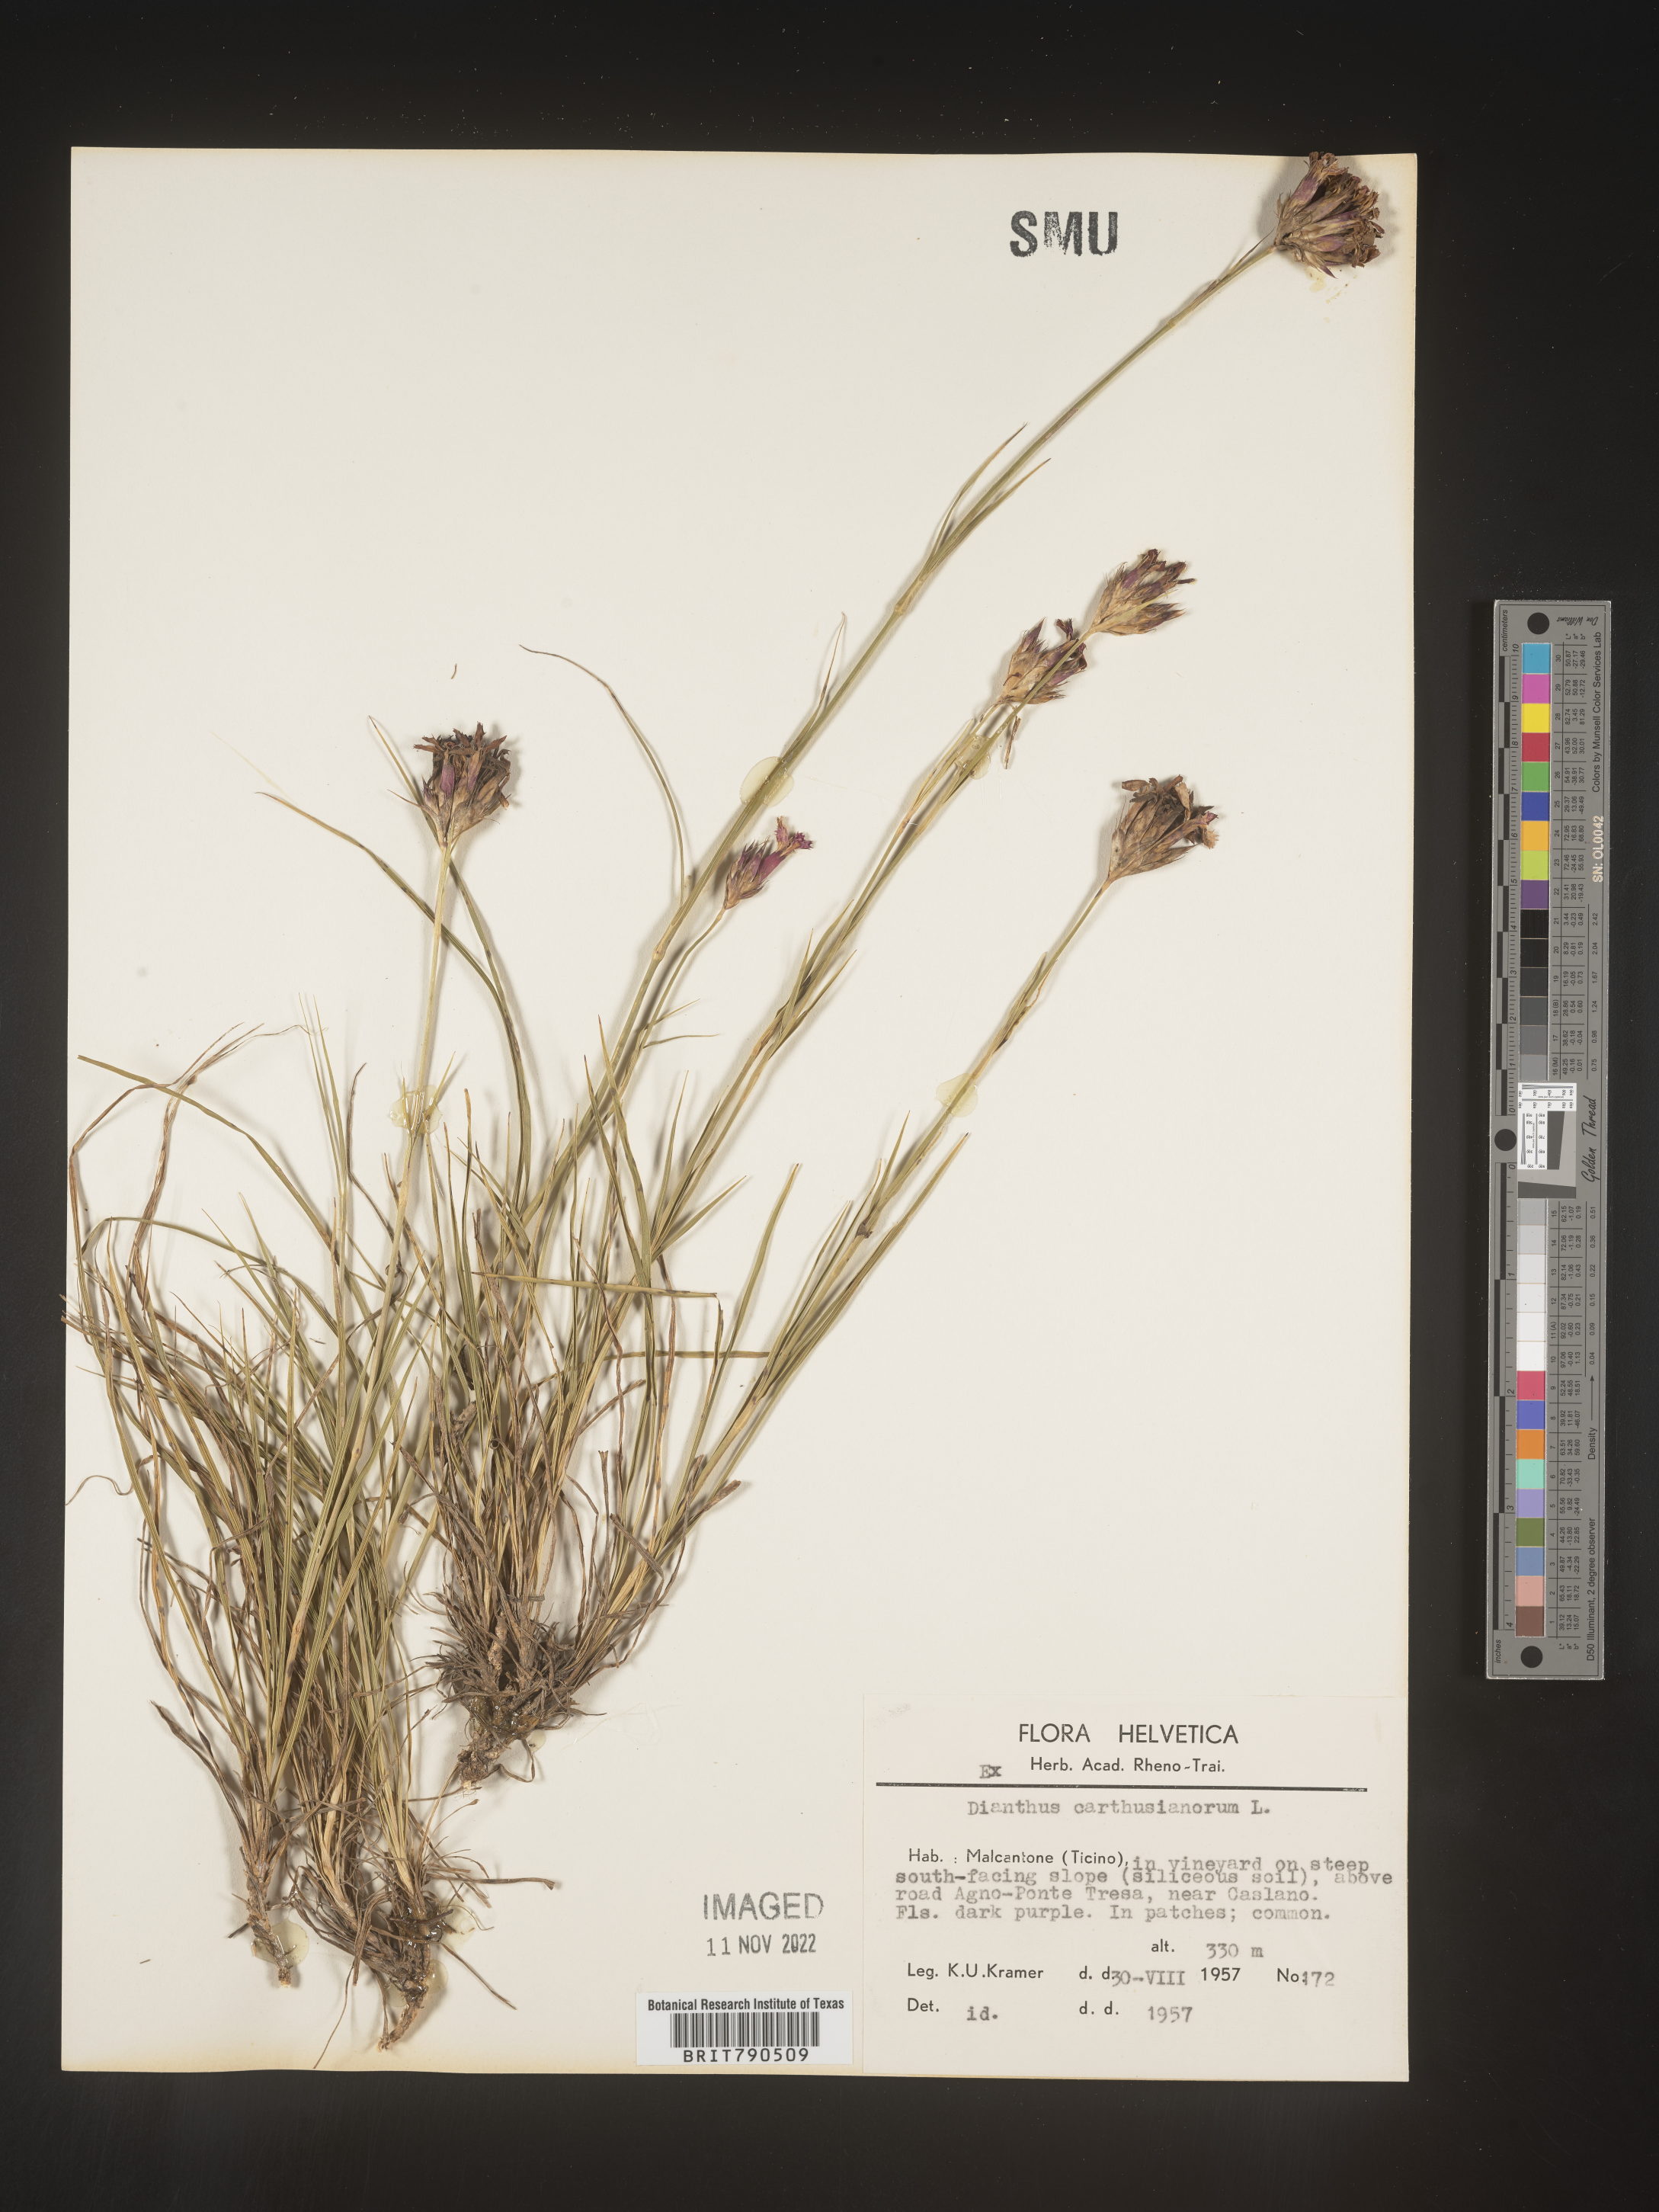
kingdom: Plantae
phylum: Tracheophyta
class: Magnoliopsida
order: Caryophyllales
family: Caryophyllaceae
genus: Dianthus
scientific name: Dianthus carthusianorum
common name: Carthusian pink
